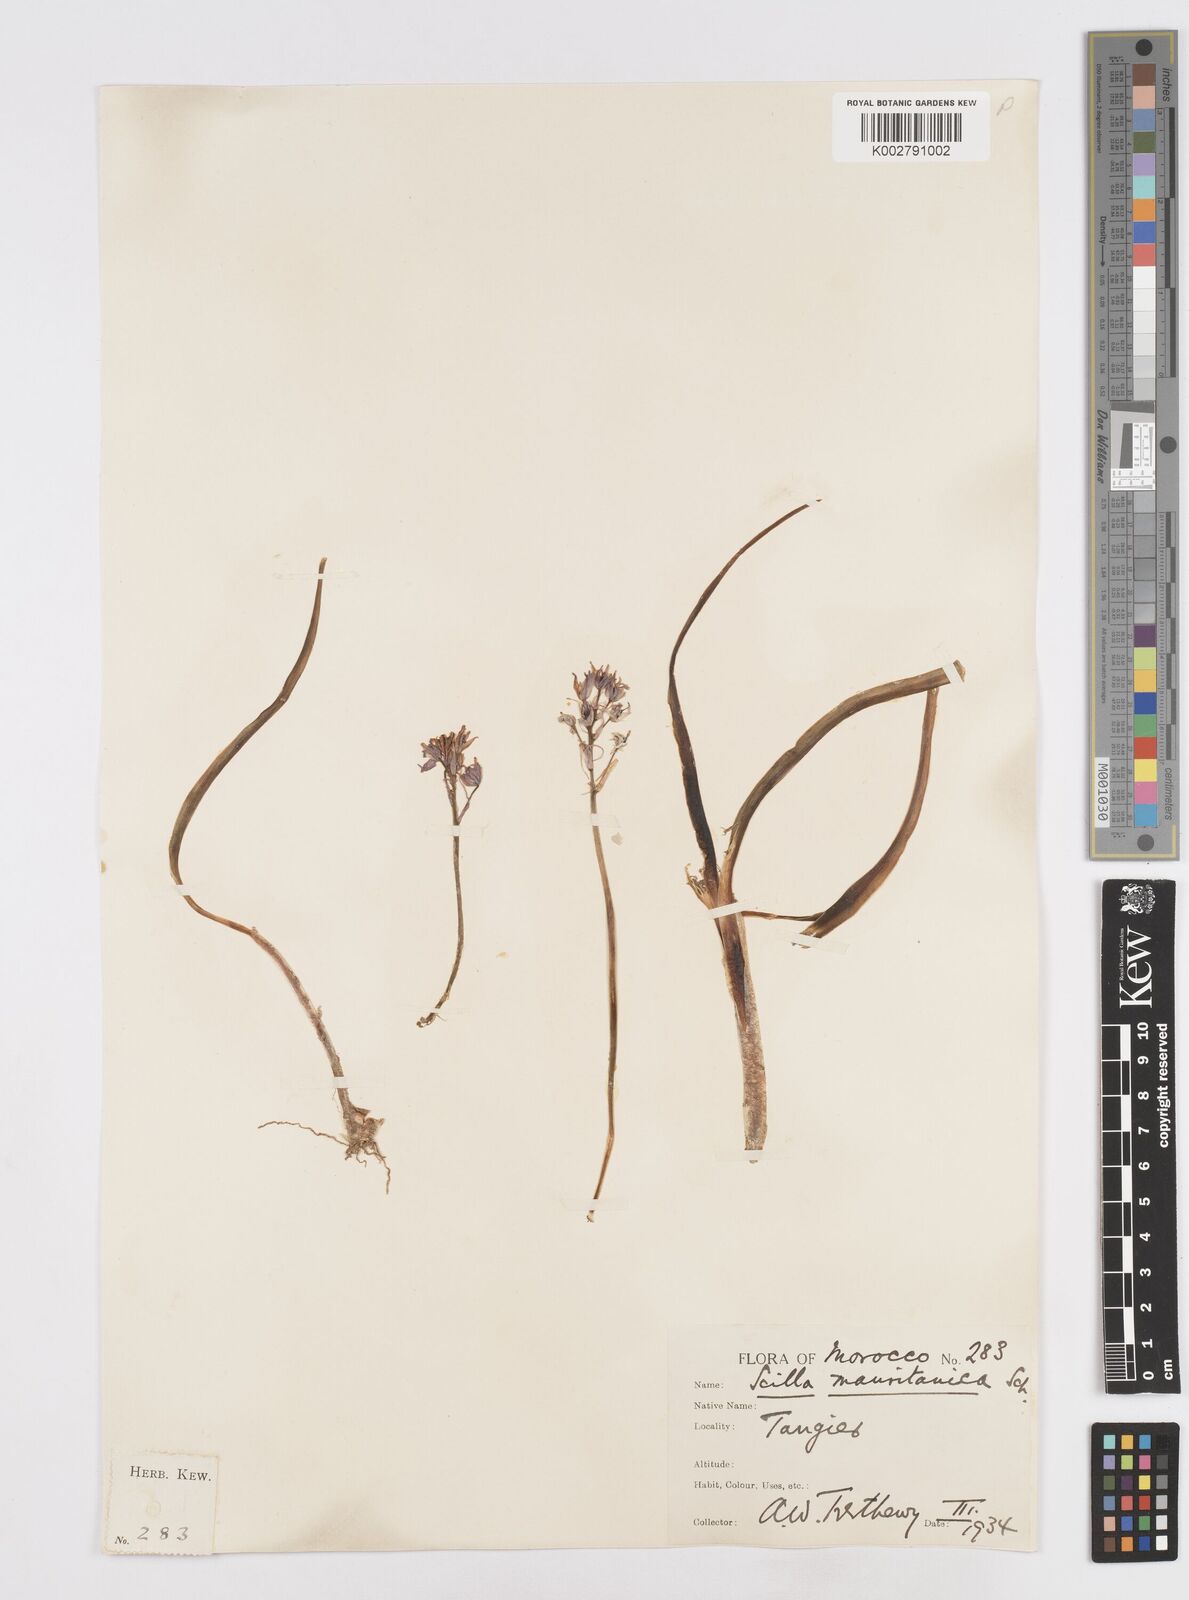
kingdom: Plantae
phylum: Tracheophyta
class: Liliopsida
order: Asparagales
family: Asparagaceae
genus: Hyacinthoides
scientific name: Hyacinthoides mauritanica
